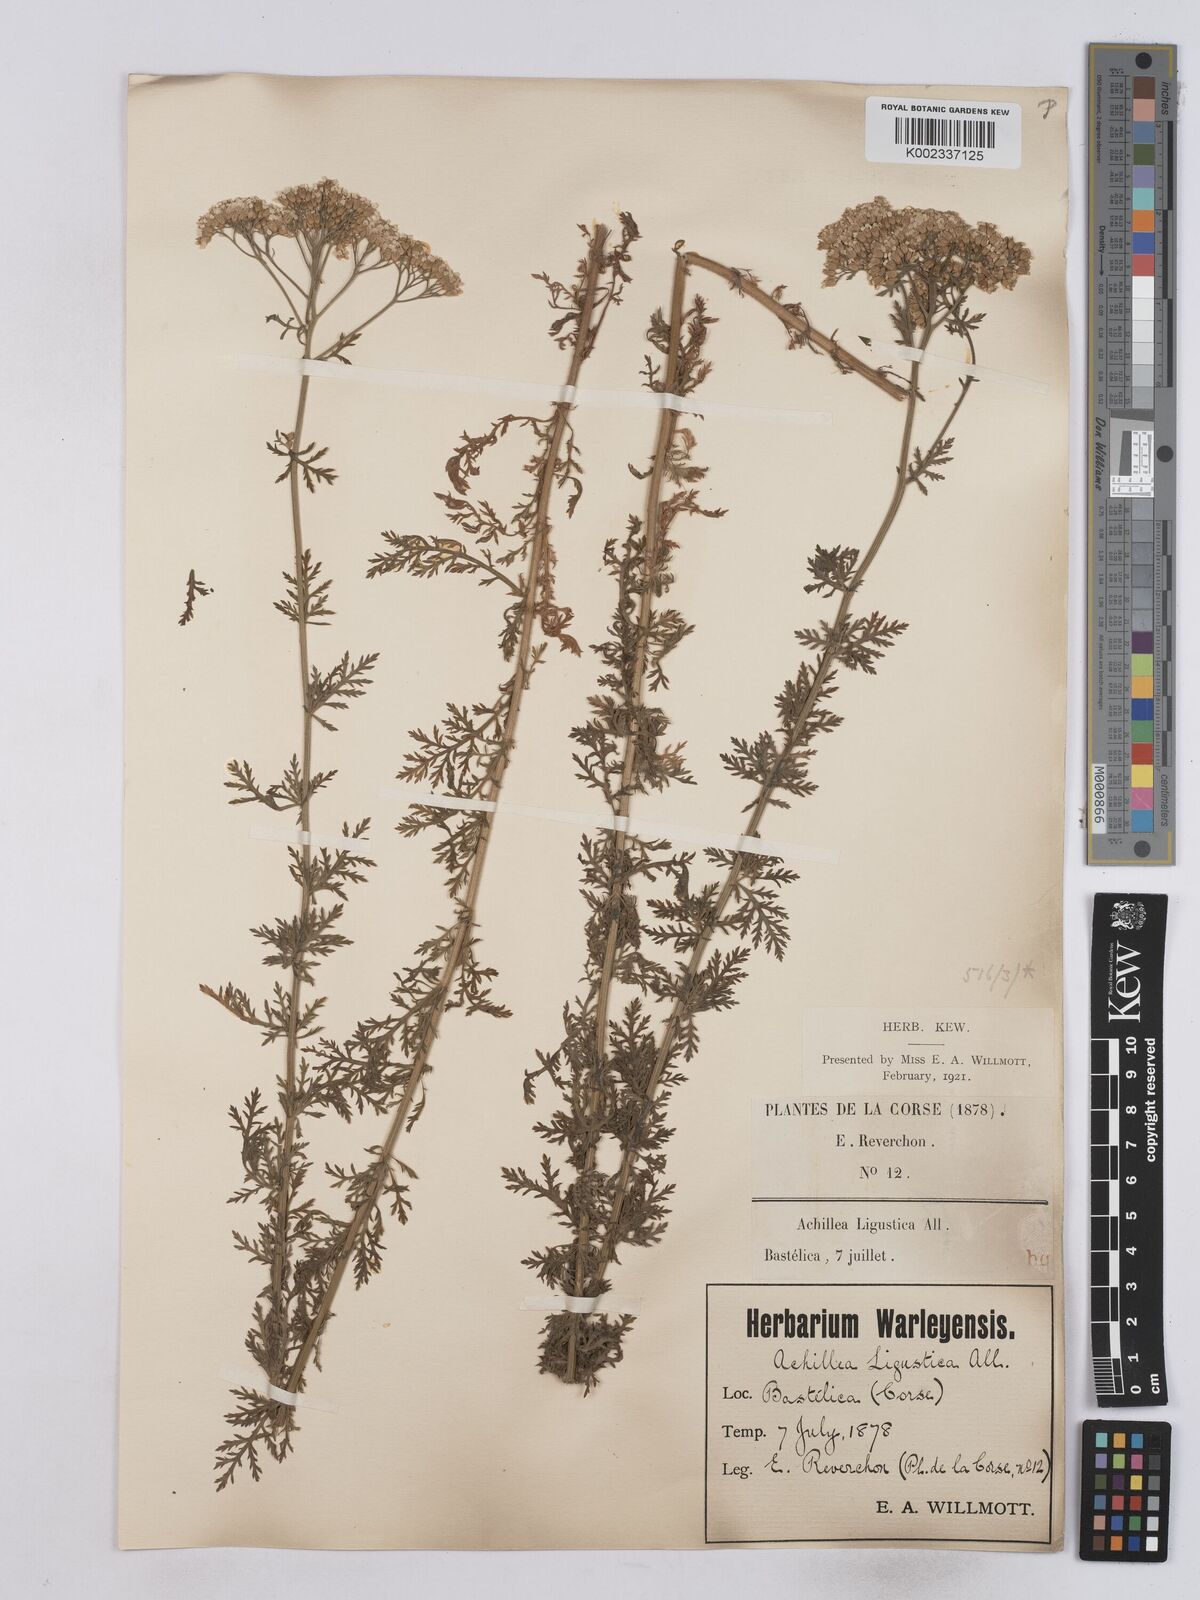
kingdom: Plantae
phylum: Tracheophyta
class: Magnoliopsida
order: Asterales
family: Asteraceae
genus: Achillea
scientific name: Achillea ligustica
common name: Southern yarrow
